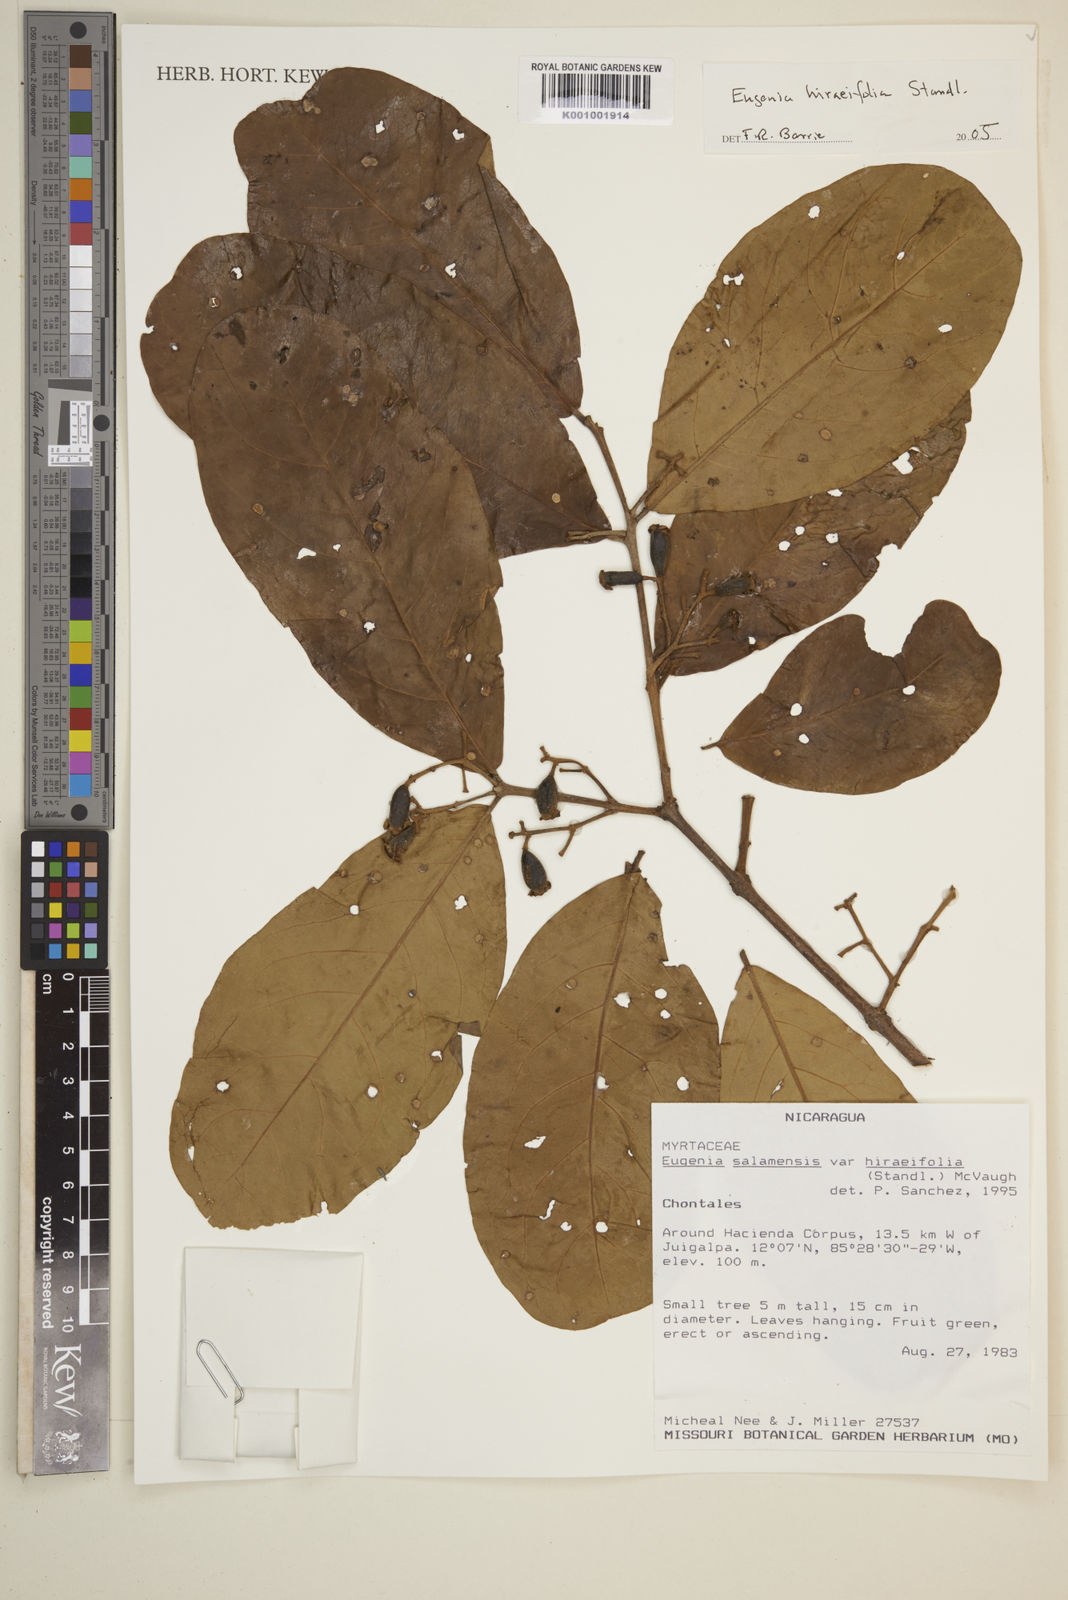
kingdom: Plantae
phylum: Tracheophyta
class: Magnoliopsida
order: Myrtales
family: Myrtaceae
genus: Eugenia
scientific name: Eugenia hiraeifolia
